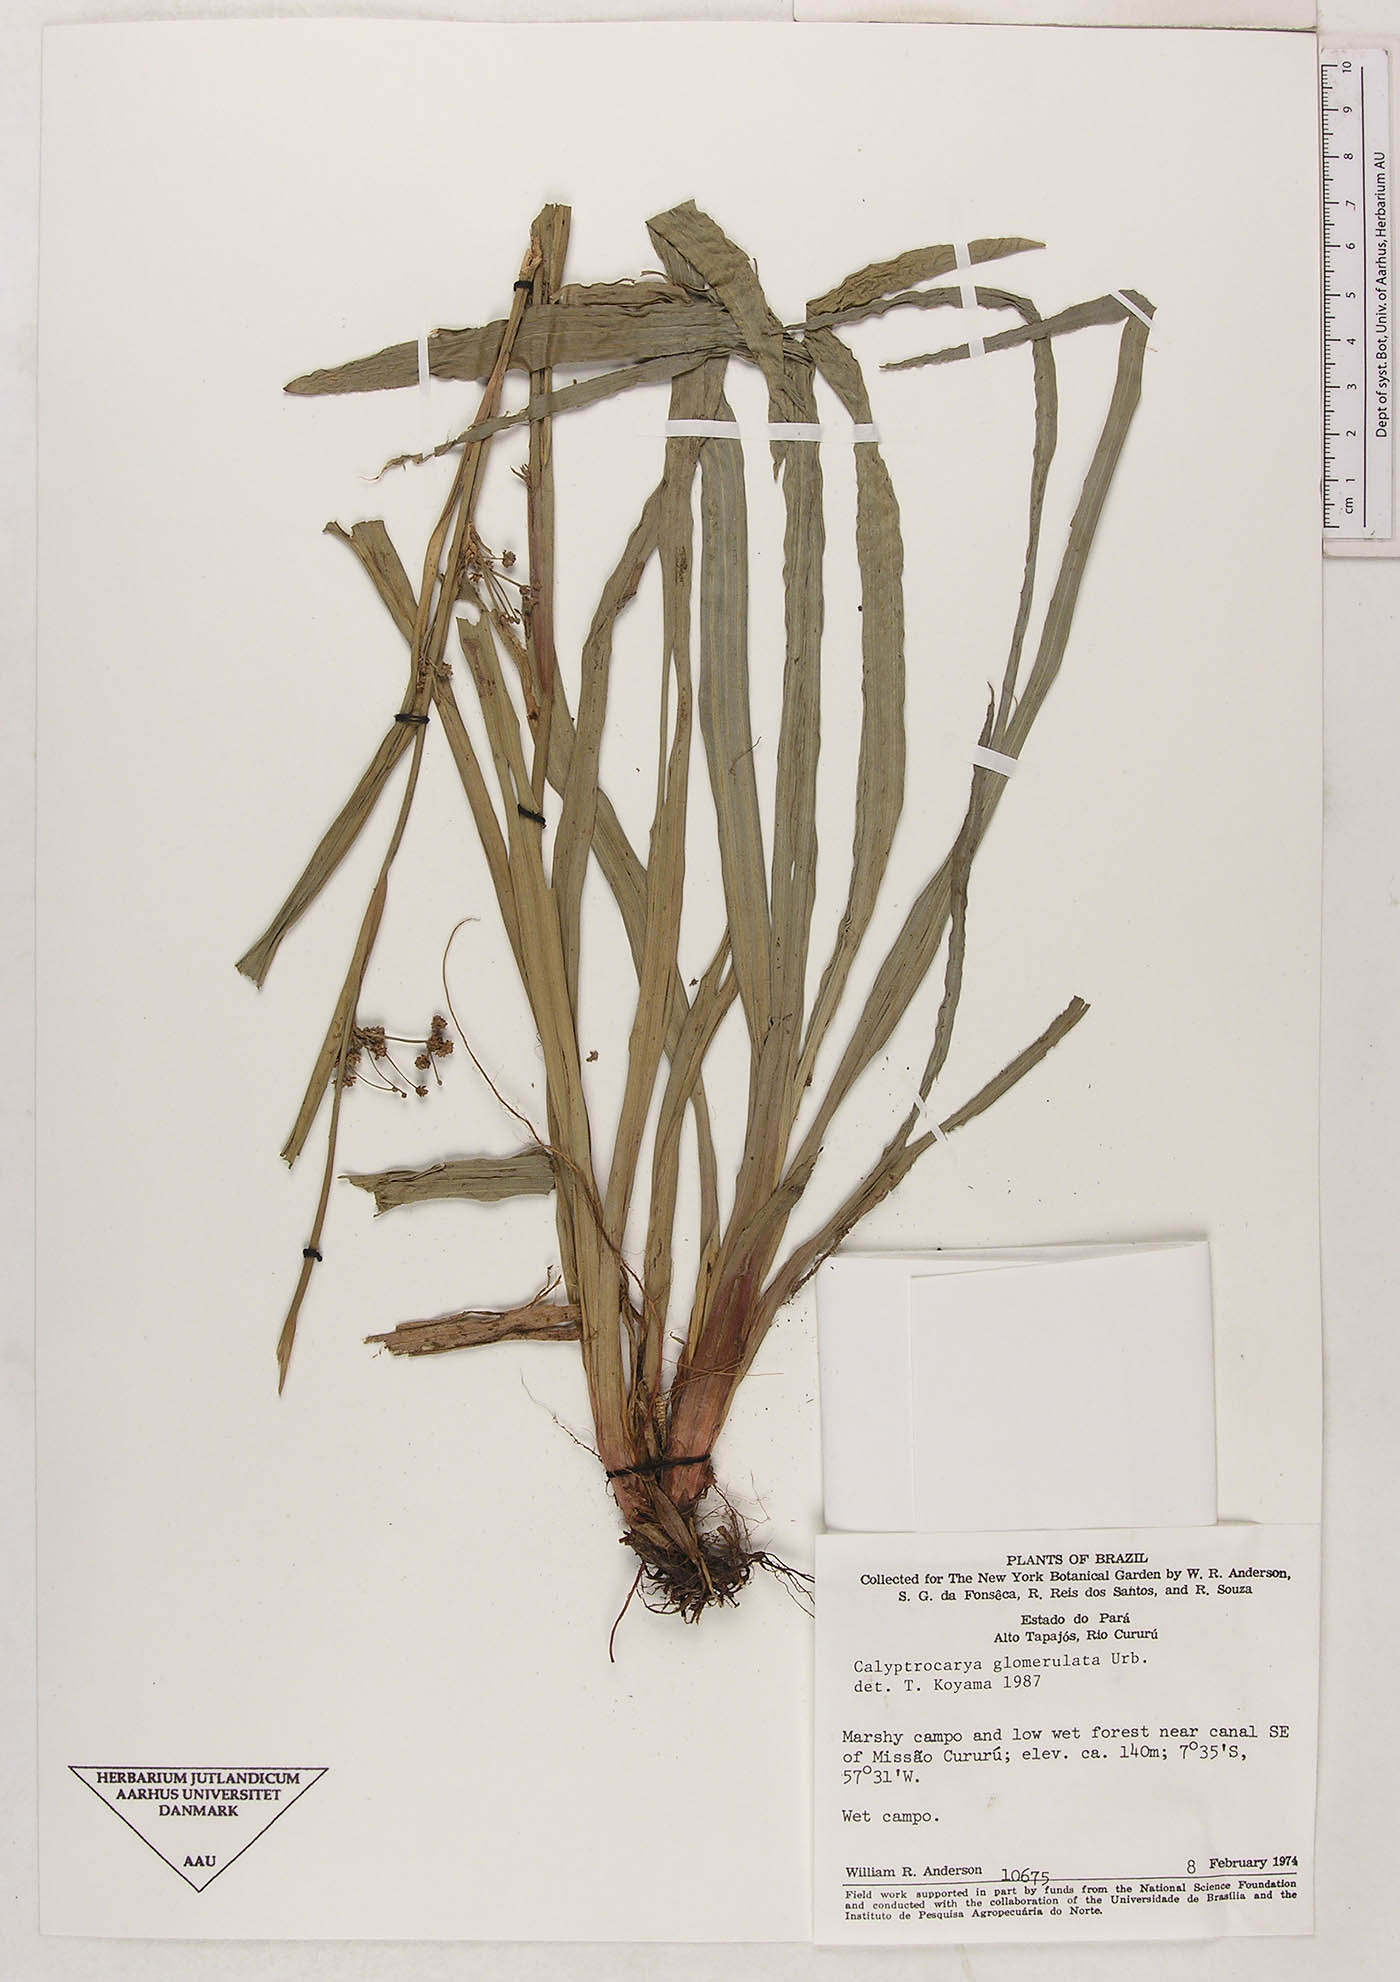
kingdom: Plantae
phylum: Tracheophyta
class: Liliopsida
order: Poales
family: Cyperaceae
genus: Calyptrocarya
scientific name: Calyptrocarya glomerulata
